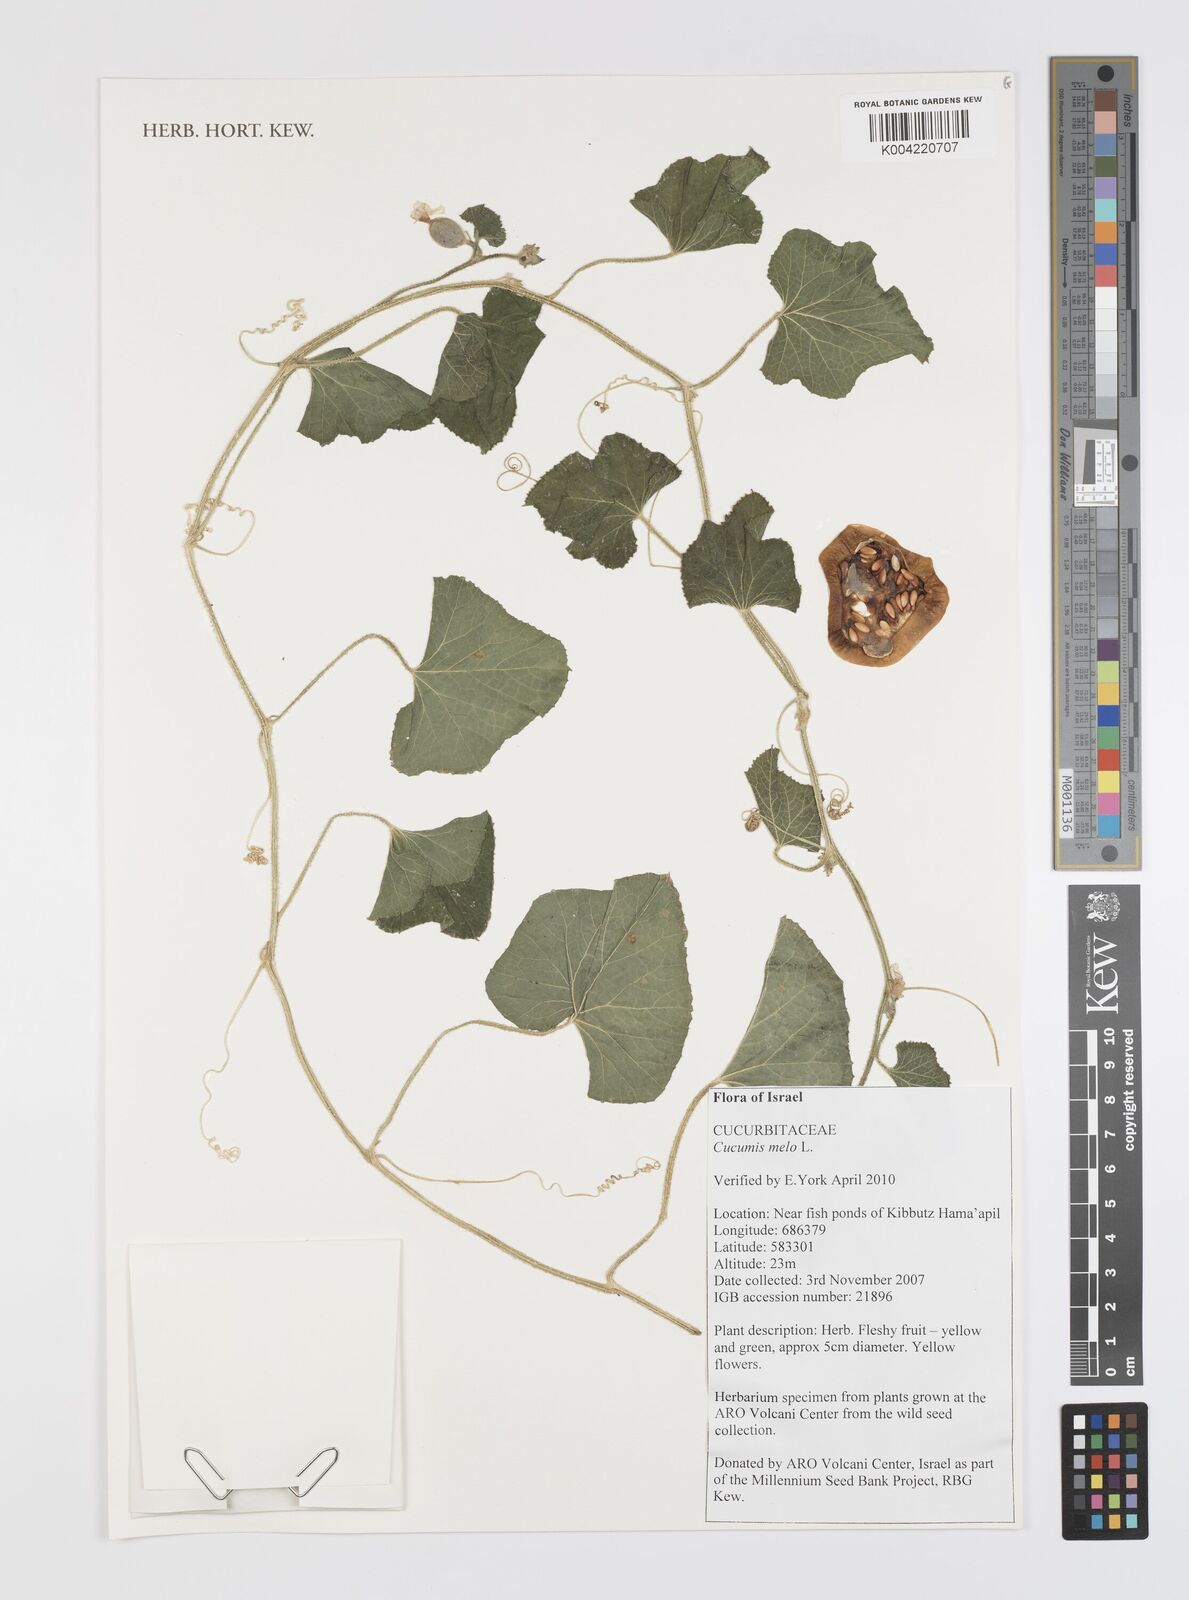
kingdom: Plantae
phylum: Tracheophyta
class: Magnoliopsida
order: Cucurbitales
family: Cucurbitaceae
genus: Cucumis
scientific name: Cucumis melo
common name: Melon
